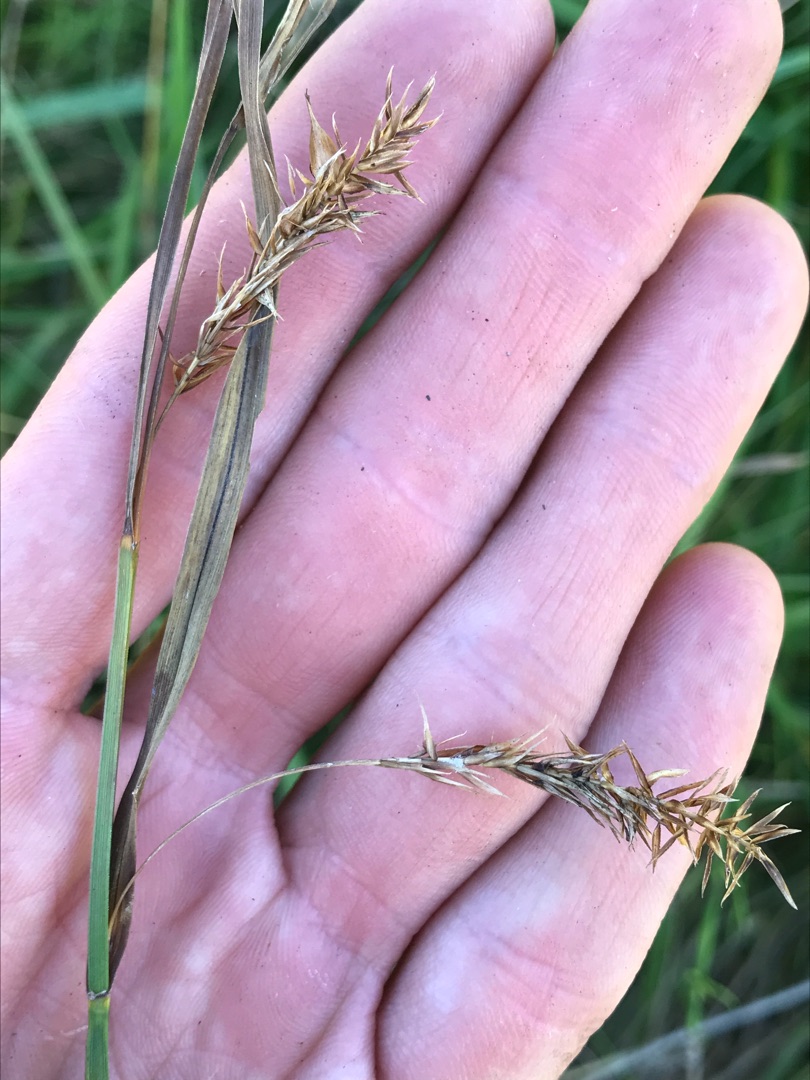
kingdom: Plantae
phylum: Tracheophyta
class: Liliopsida
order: Poales
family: Cyperaceae
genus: Carex
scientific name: Carex vesicaria
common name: Blære-star
